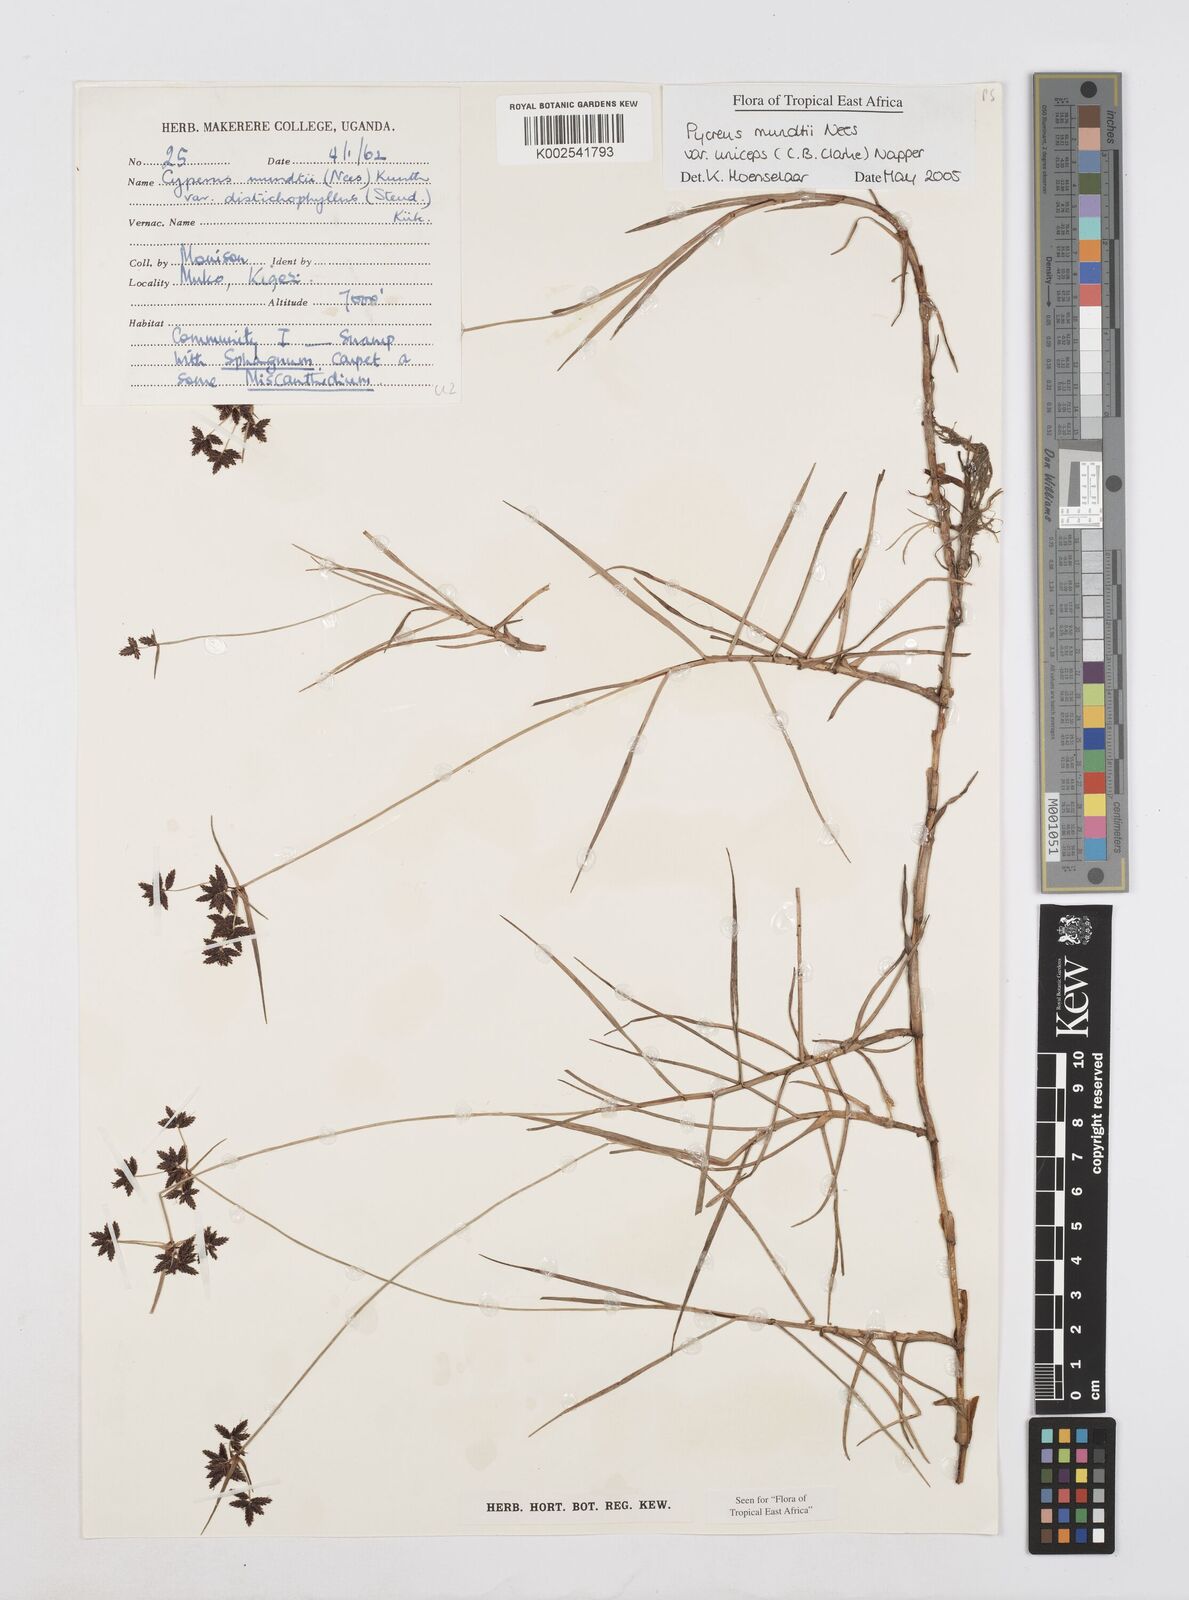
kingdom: Plantae
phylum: Tracheophyta
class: Liliopsida
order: Poales
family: Cyperaceae
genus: Cyperus
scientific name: Cyperus mundii
